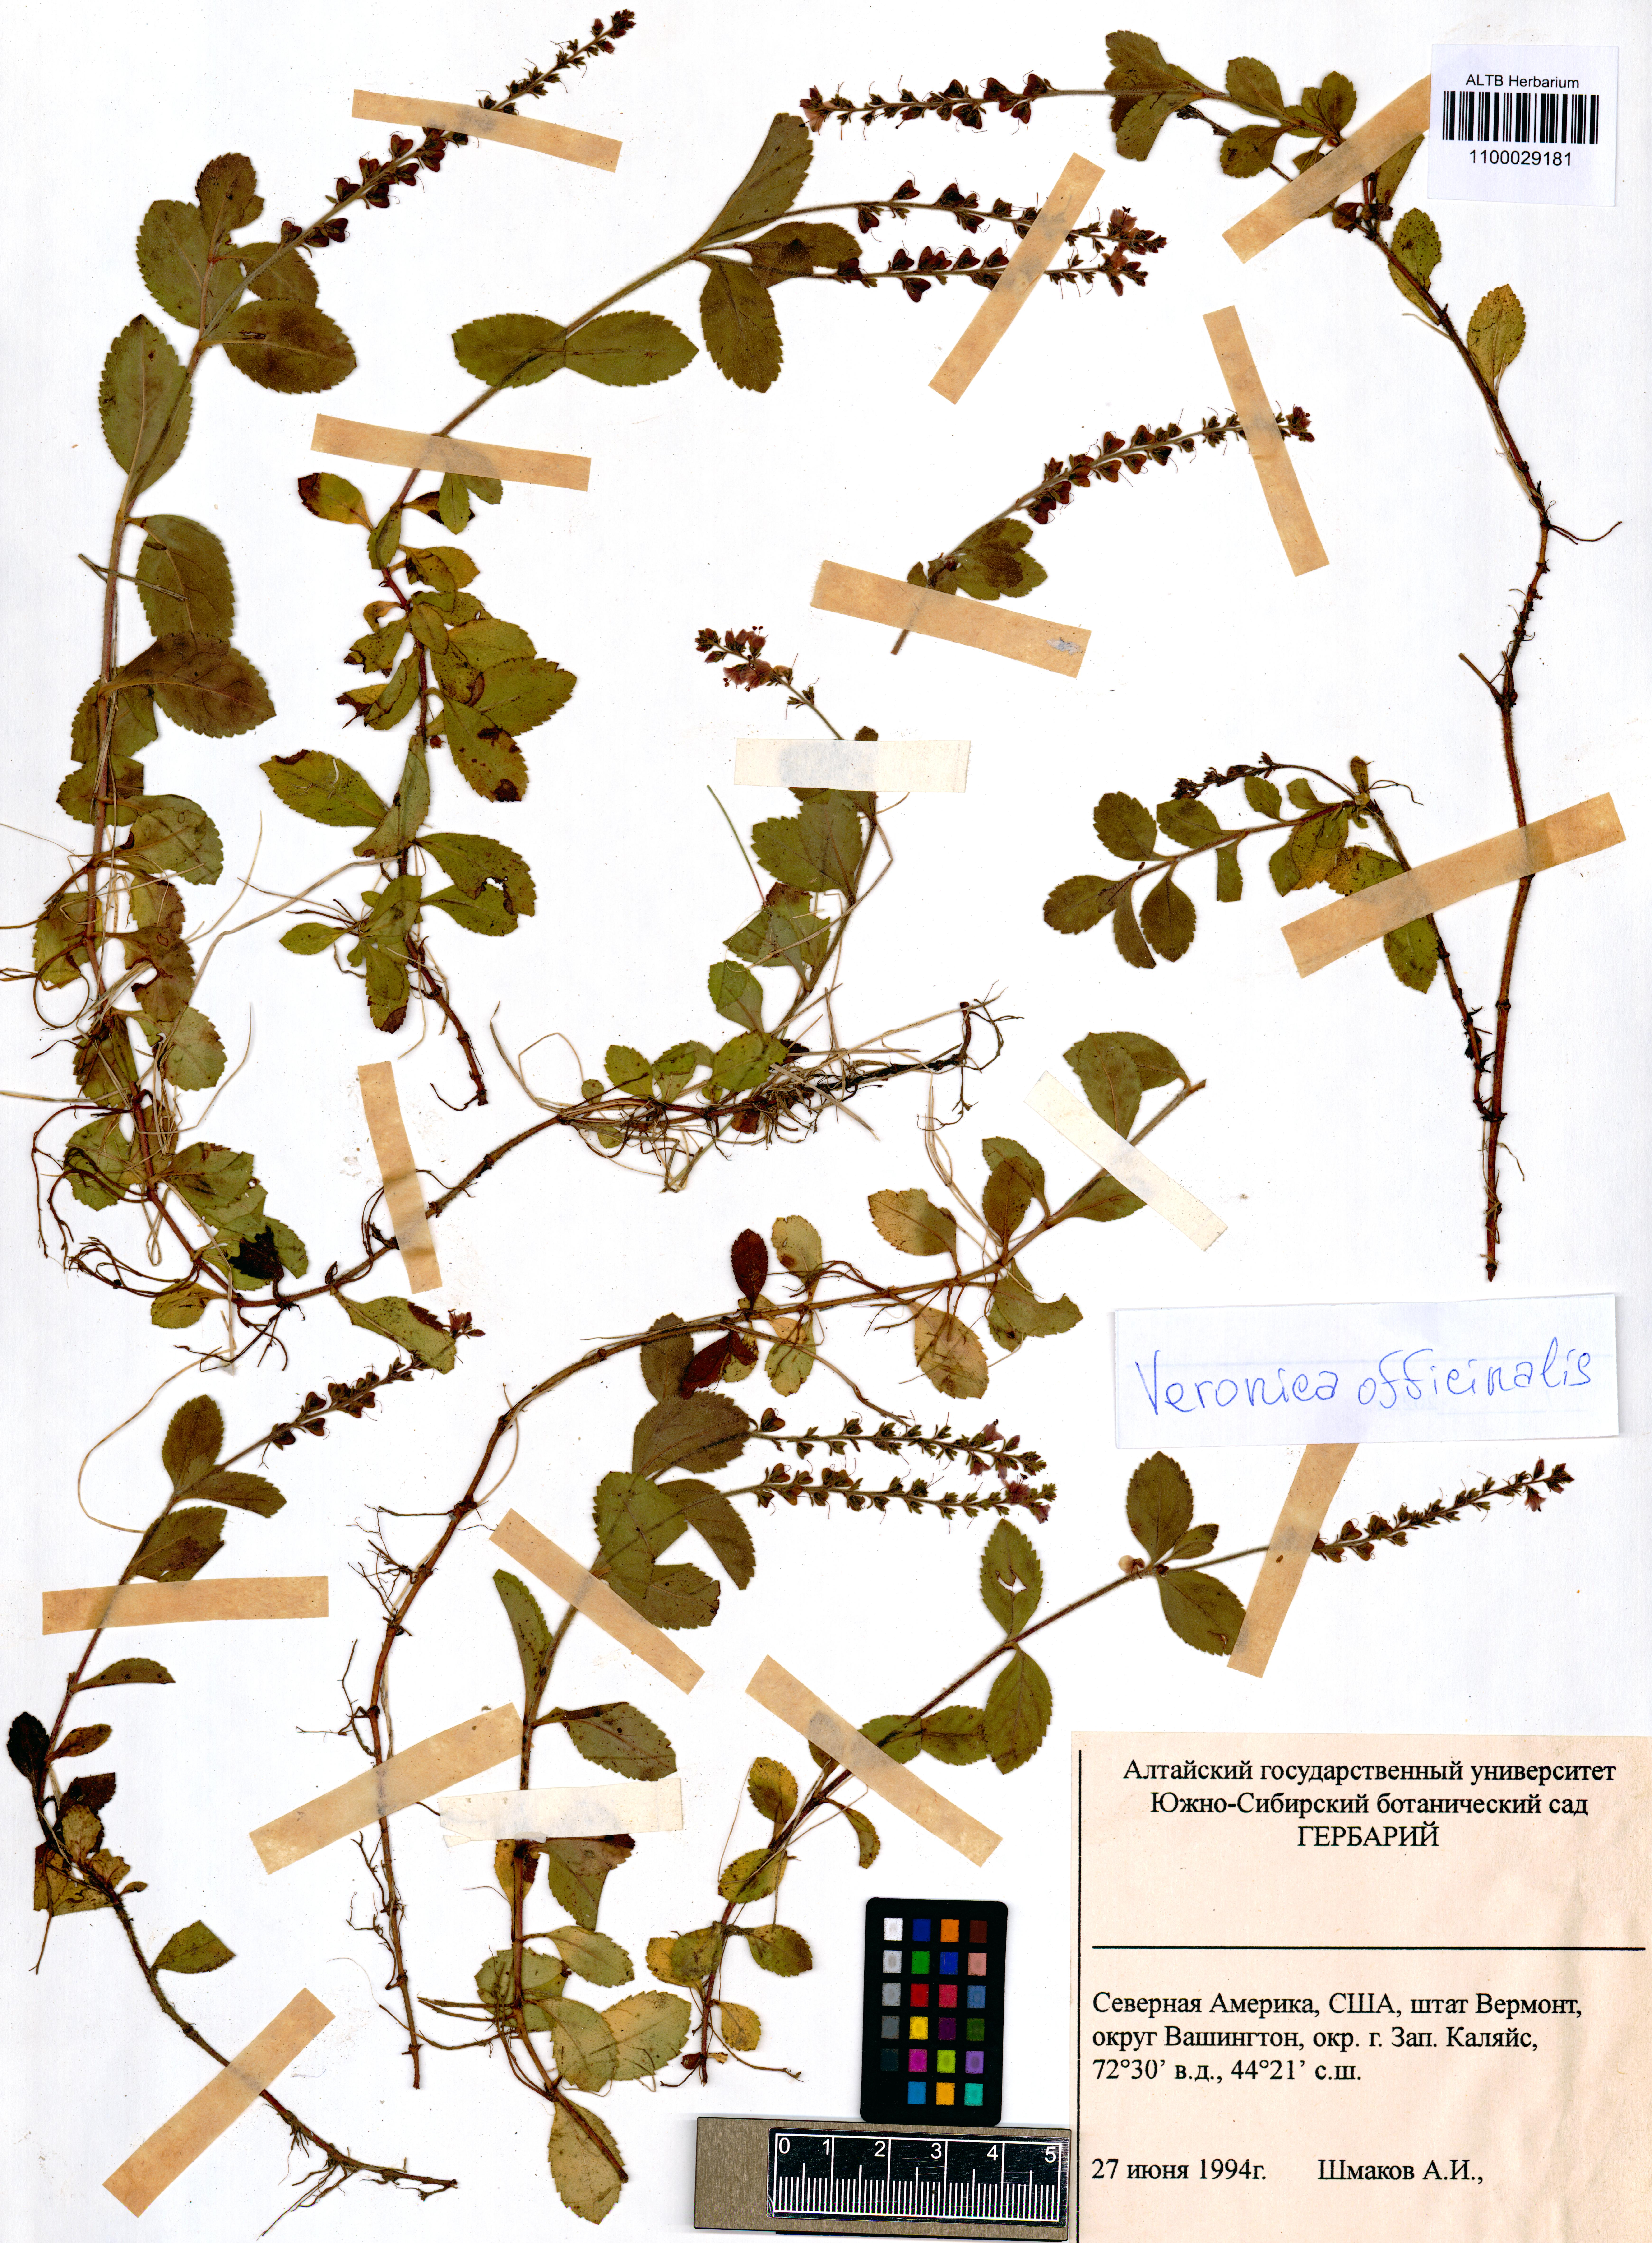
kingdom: Plantae
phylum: Tracheophyta
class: Magnoliopsida
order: Lamiales
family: Plantaginaceae
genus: Veronica
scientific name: Veronica officinalis
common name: Common speedwell
